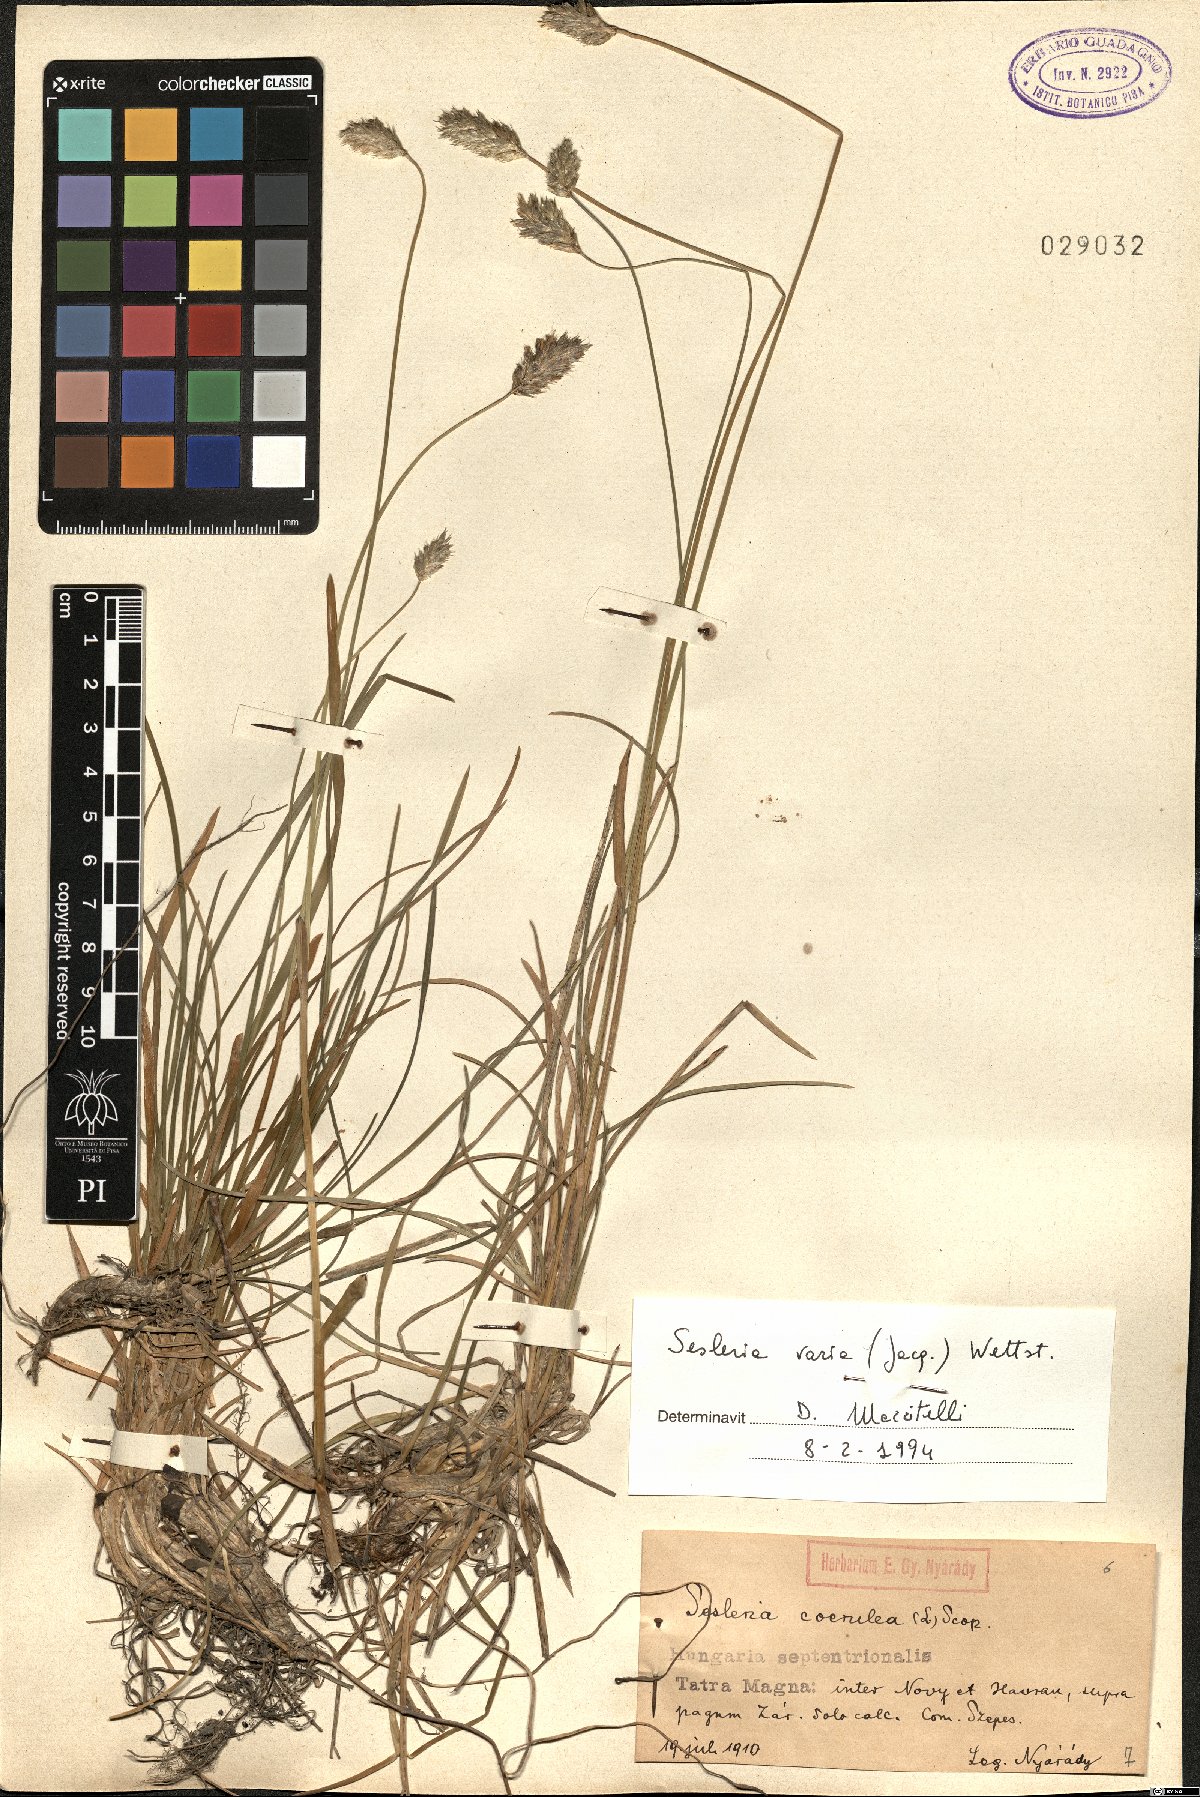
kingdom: Plantae
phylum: Tracheophyta
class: Liliopsida
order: Poales
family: Poaceae
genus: Sesleria
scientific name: Sesleria caerulea
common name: Blue moor-grass
